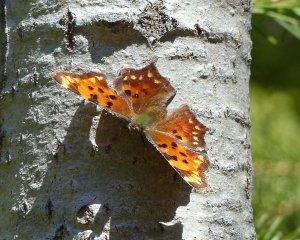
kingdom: Animalia
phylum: Arthropoda
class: Insecta
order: Lepidoptera
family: Nymphalidae
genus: Polygonia
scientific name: Polygonia faunus
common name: Green Comma
